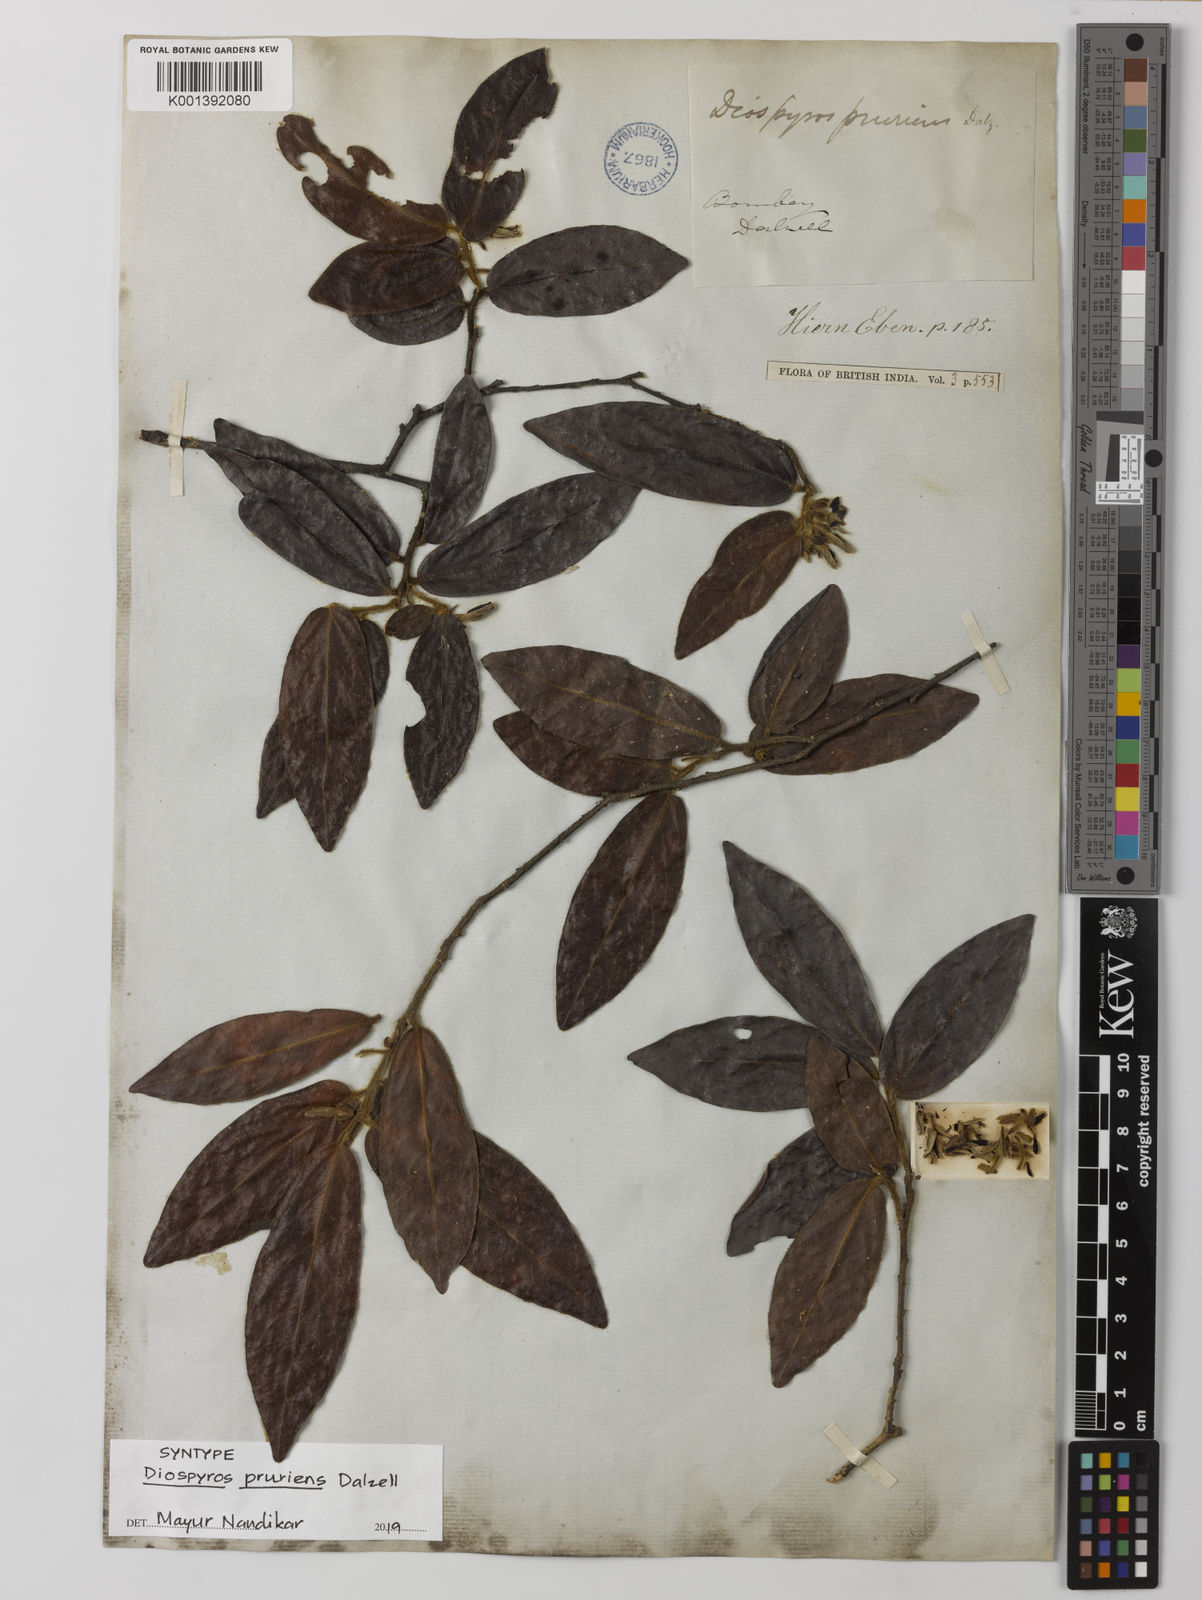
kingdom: Plantae
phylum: Tracheophyta
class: Magnoliopsida
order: Ericales
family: Ebenaceae
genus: Diospyros
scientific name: Diospyros pruriens
